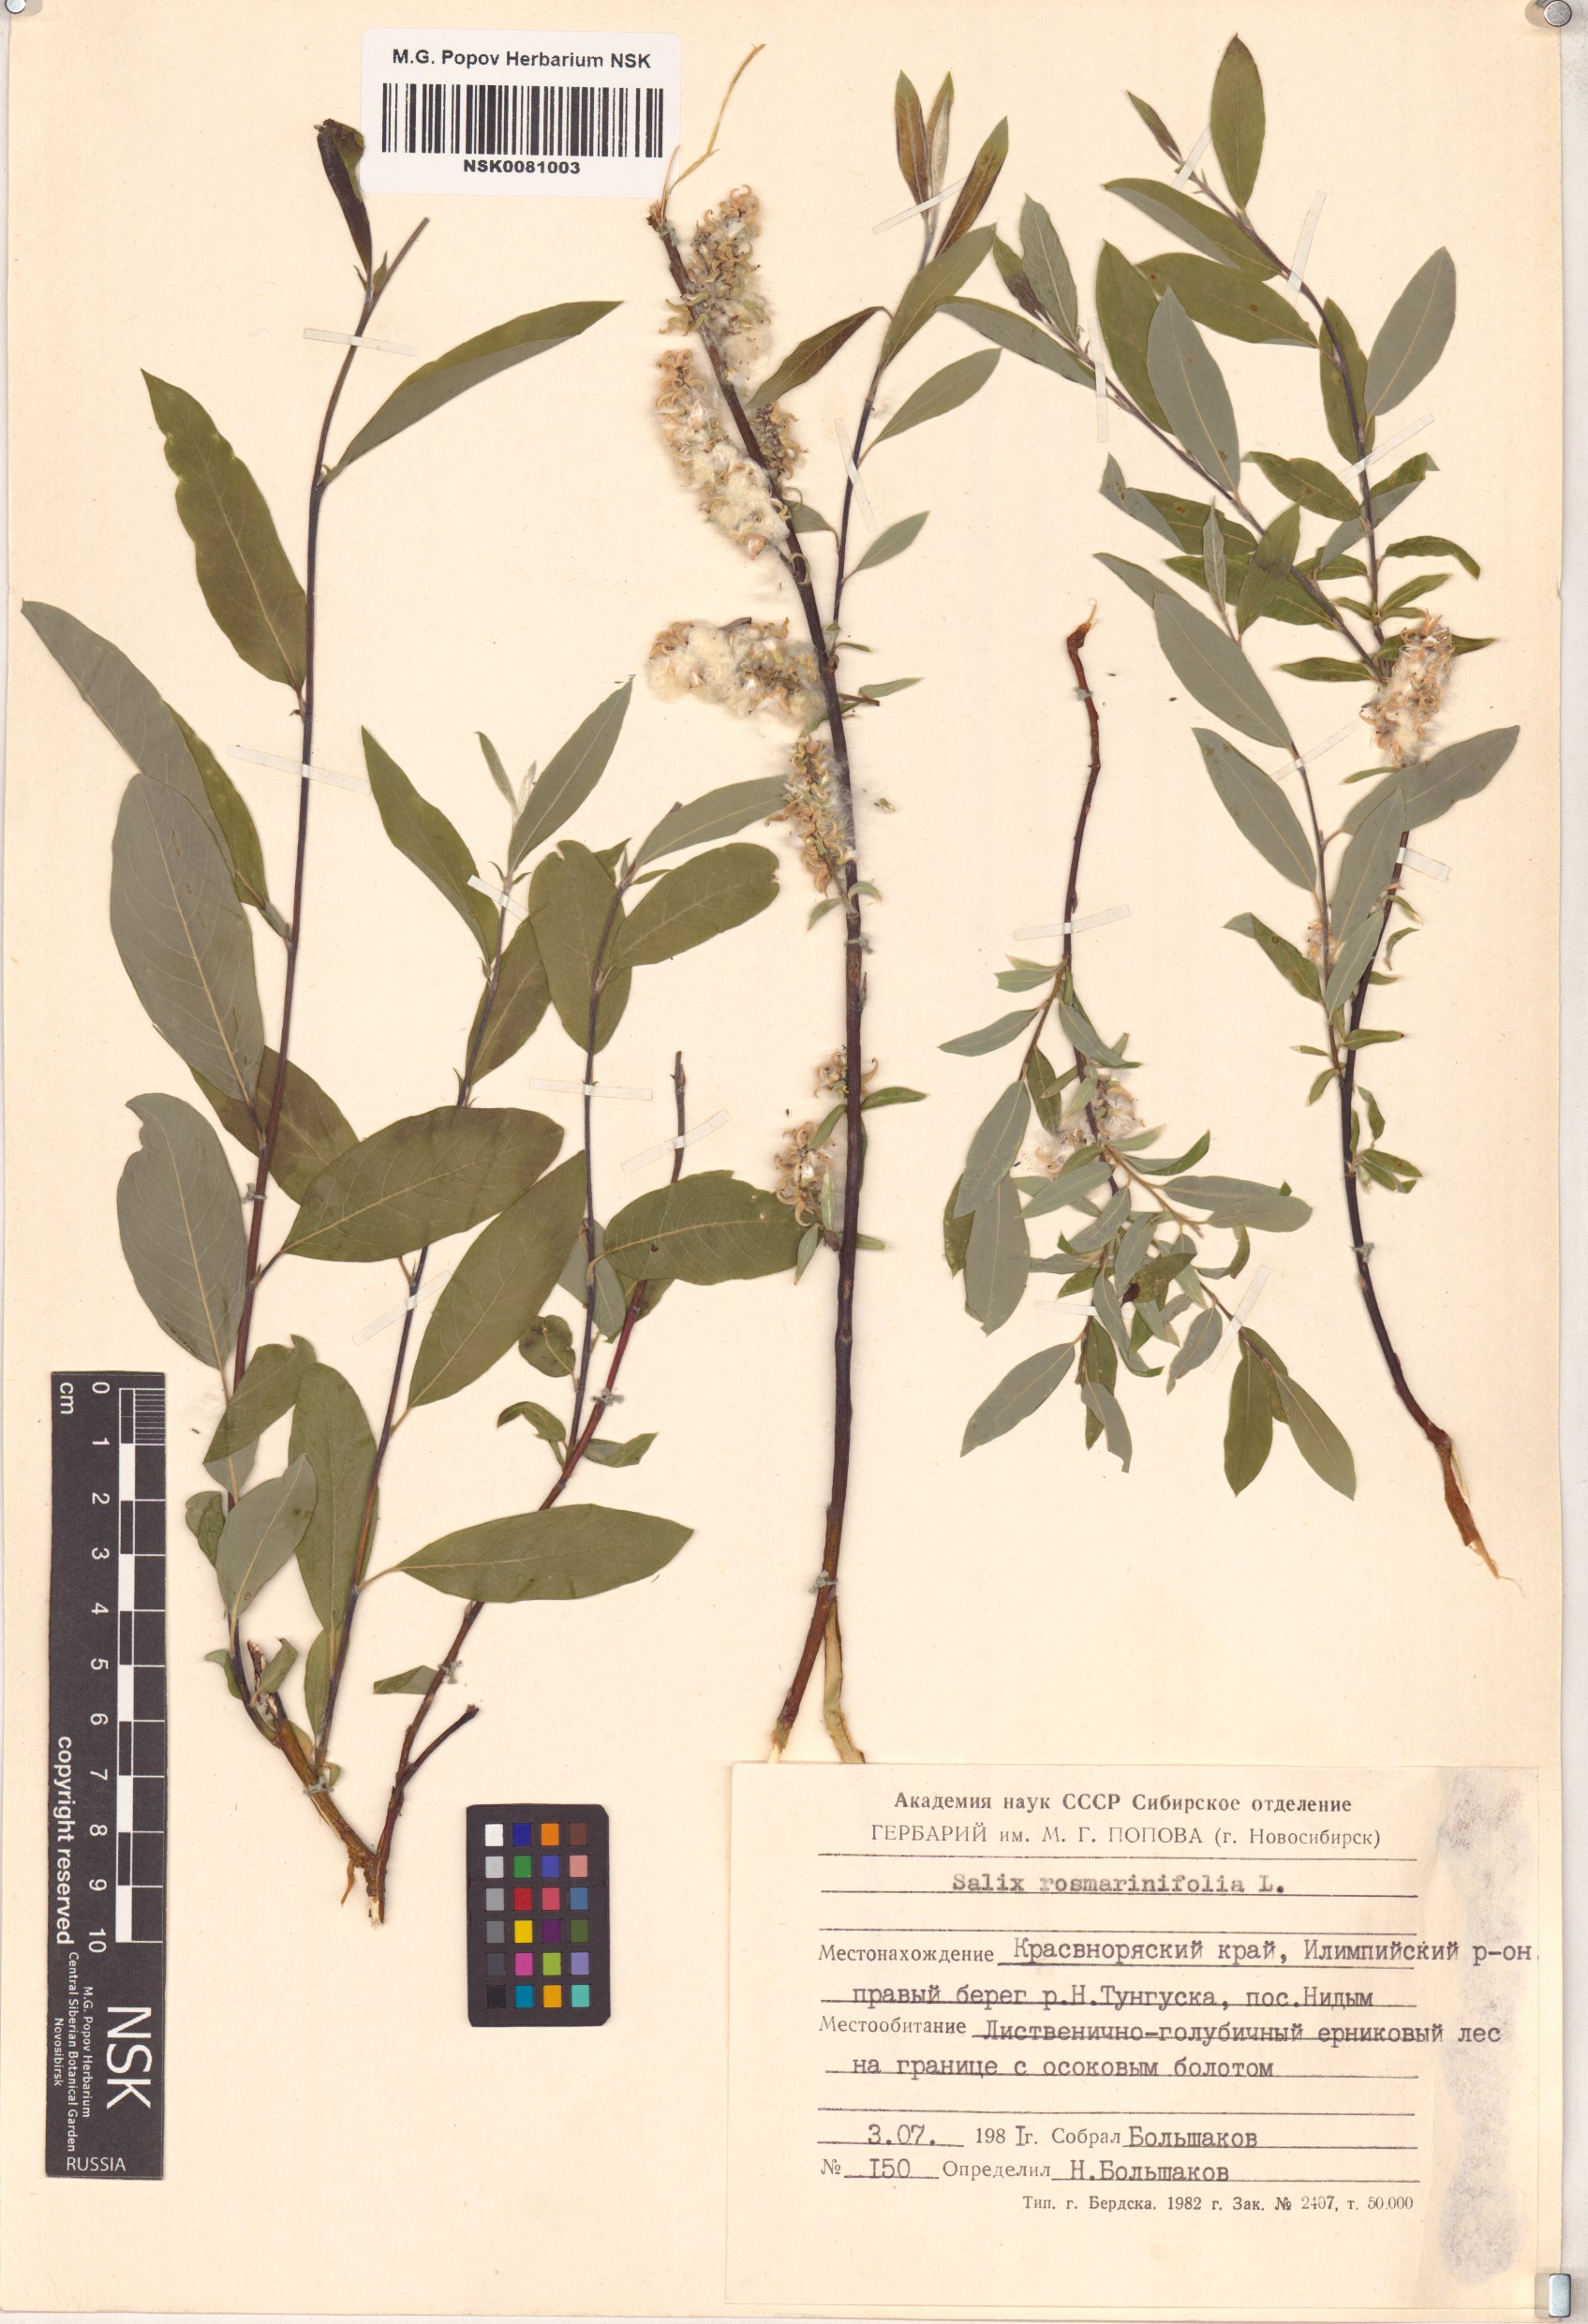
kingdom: Plantae
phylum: Tracheophyta
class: Magnoliopsida
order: Malpighiales
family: Salicaceae
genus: Salix
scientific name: Salix rosmarinifolia
